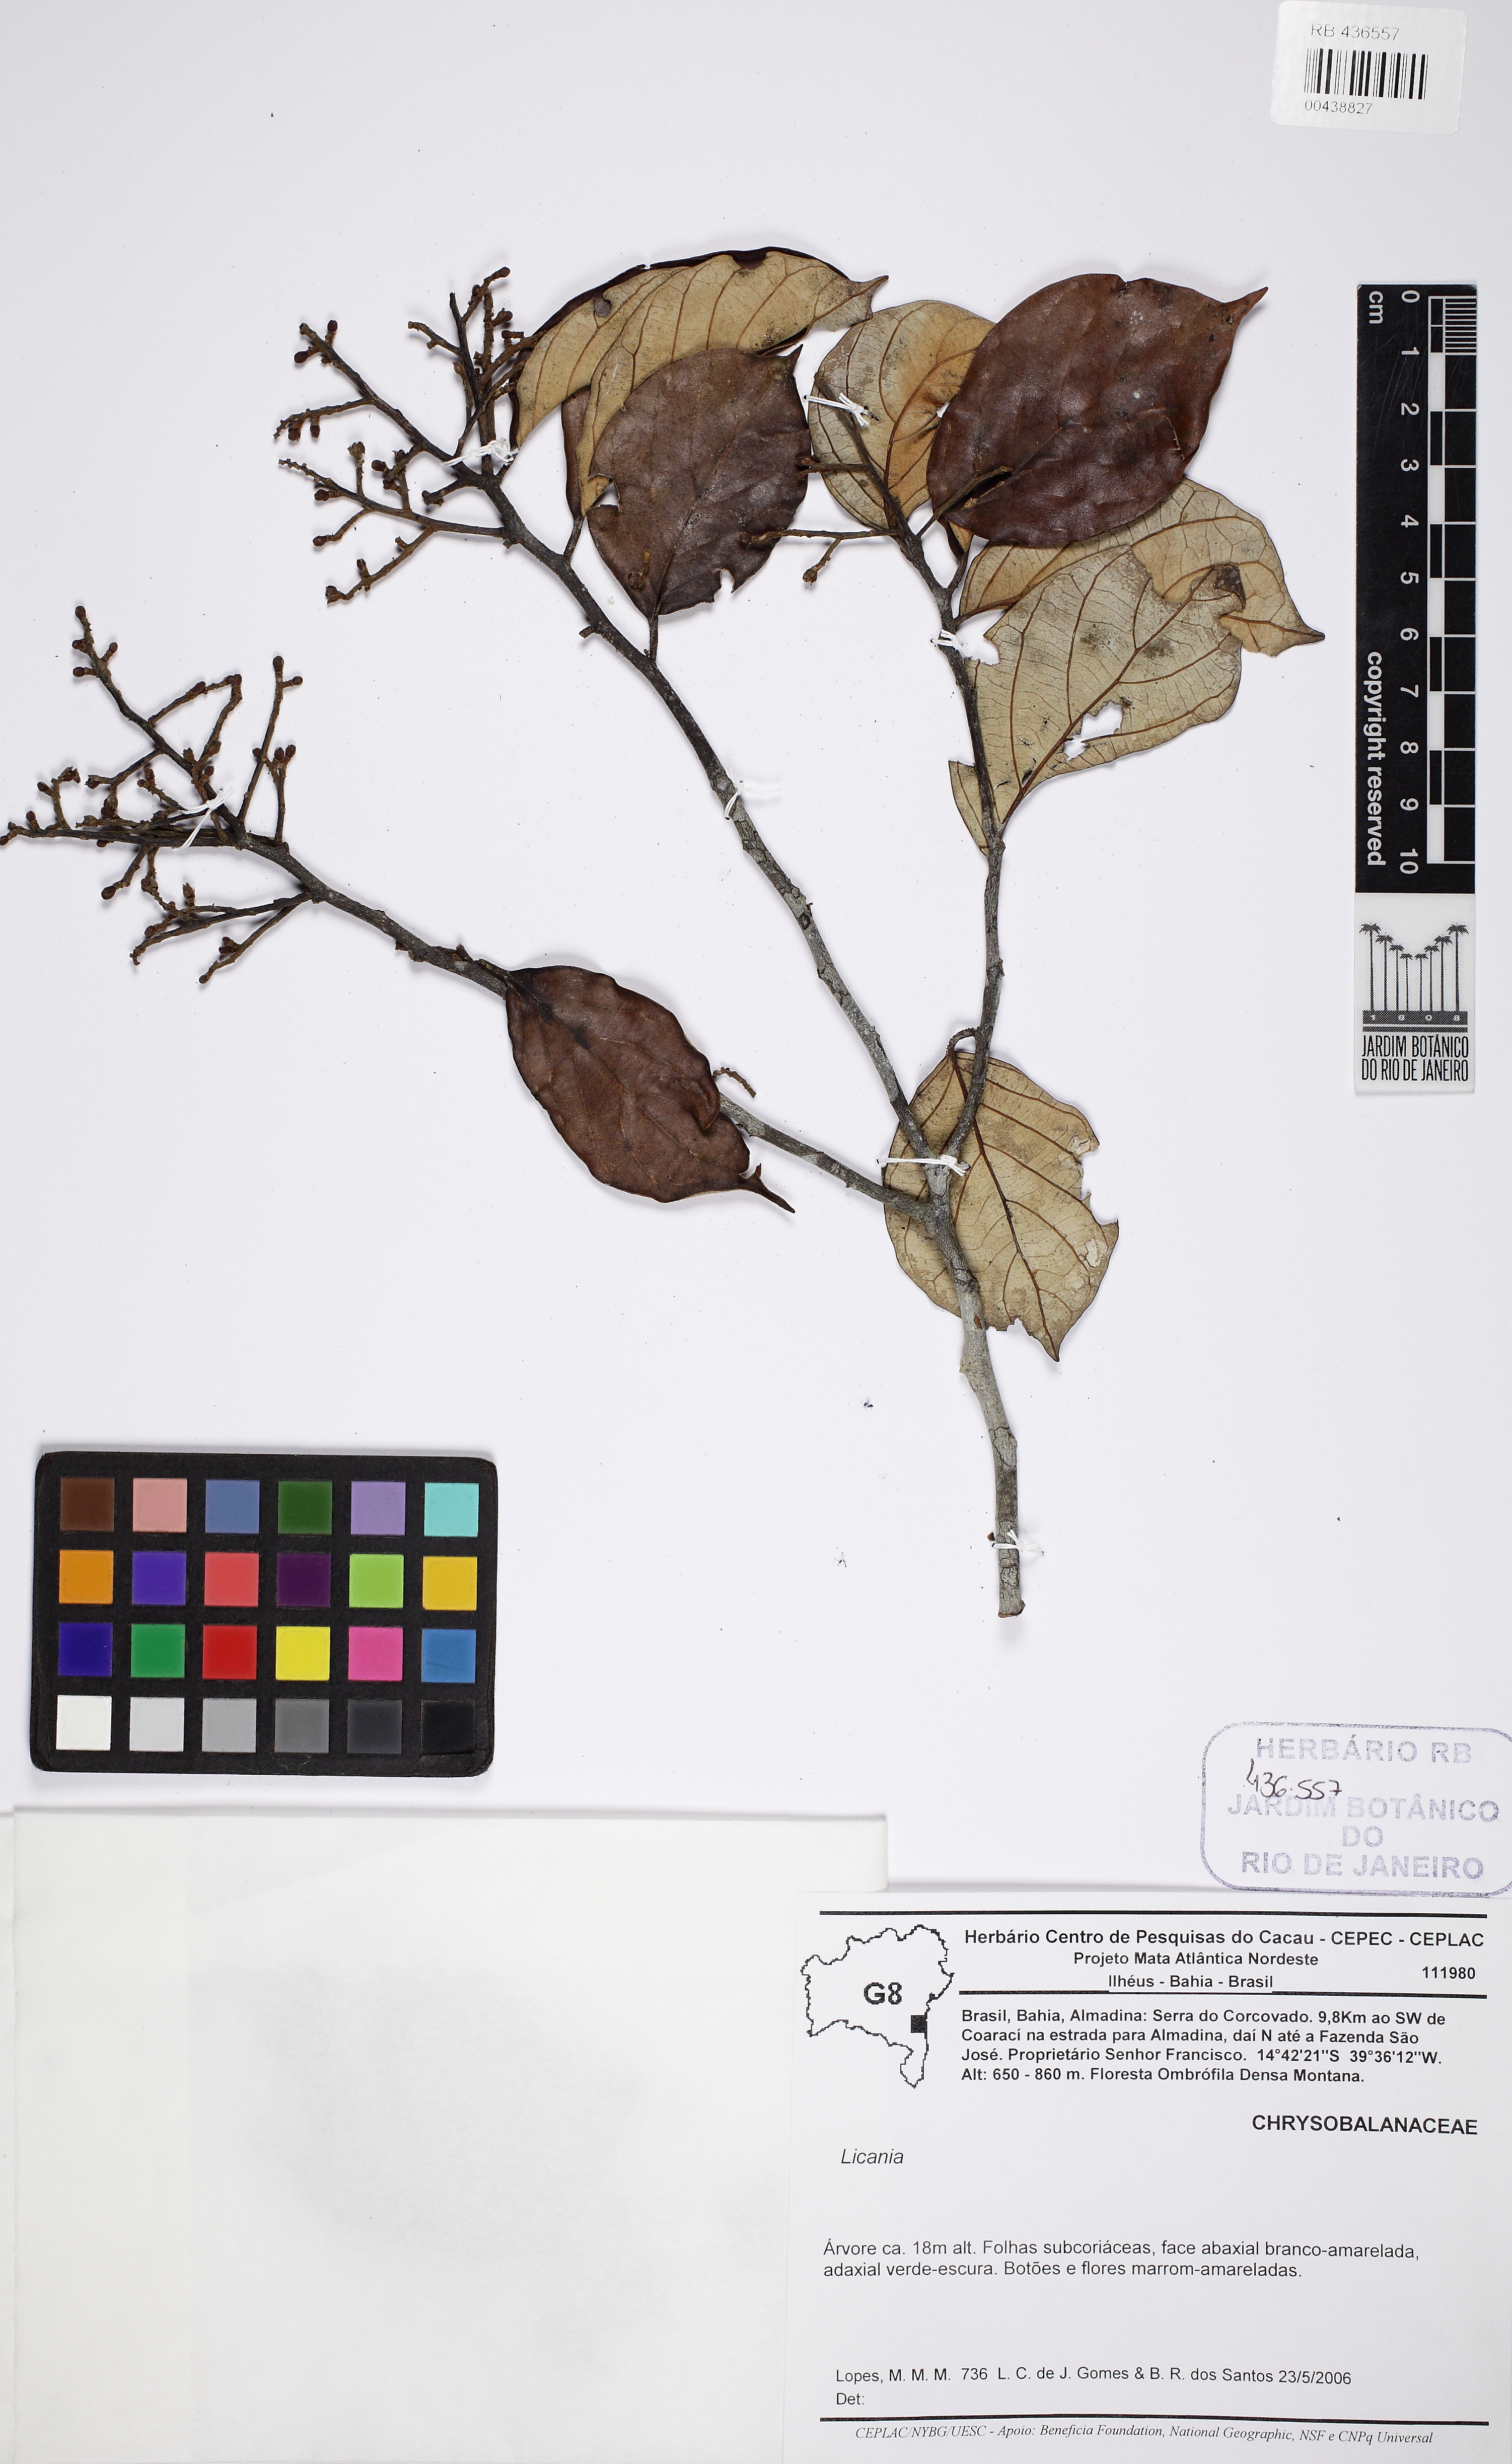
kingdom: Plantae
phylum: Tracheophyta
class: Magnoliopsida
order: Malpighiales
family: Chrysobalanaceae
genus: Licania
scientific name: Licania
